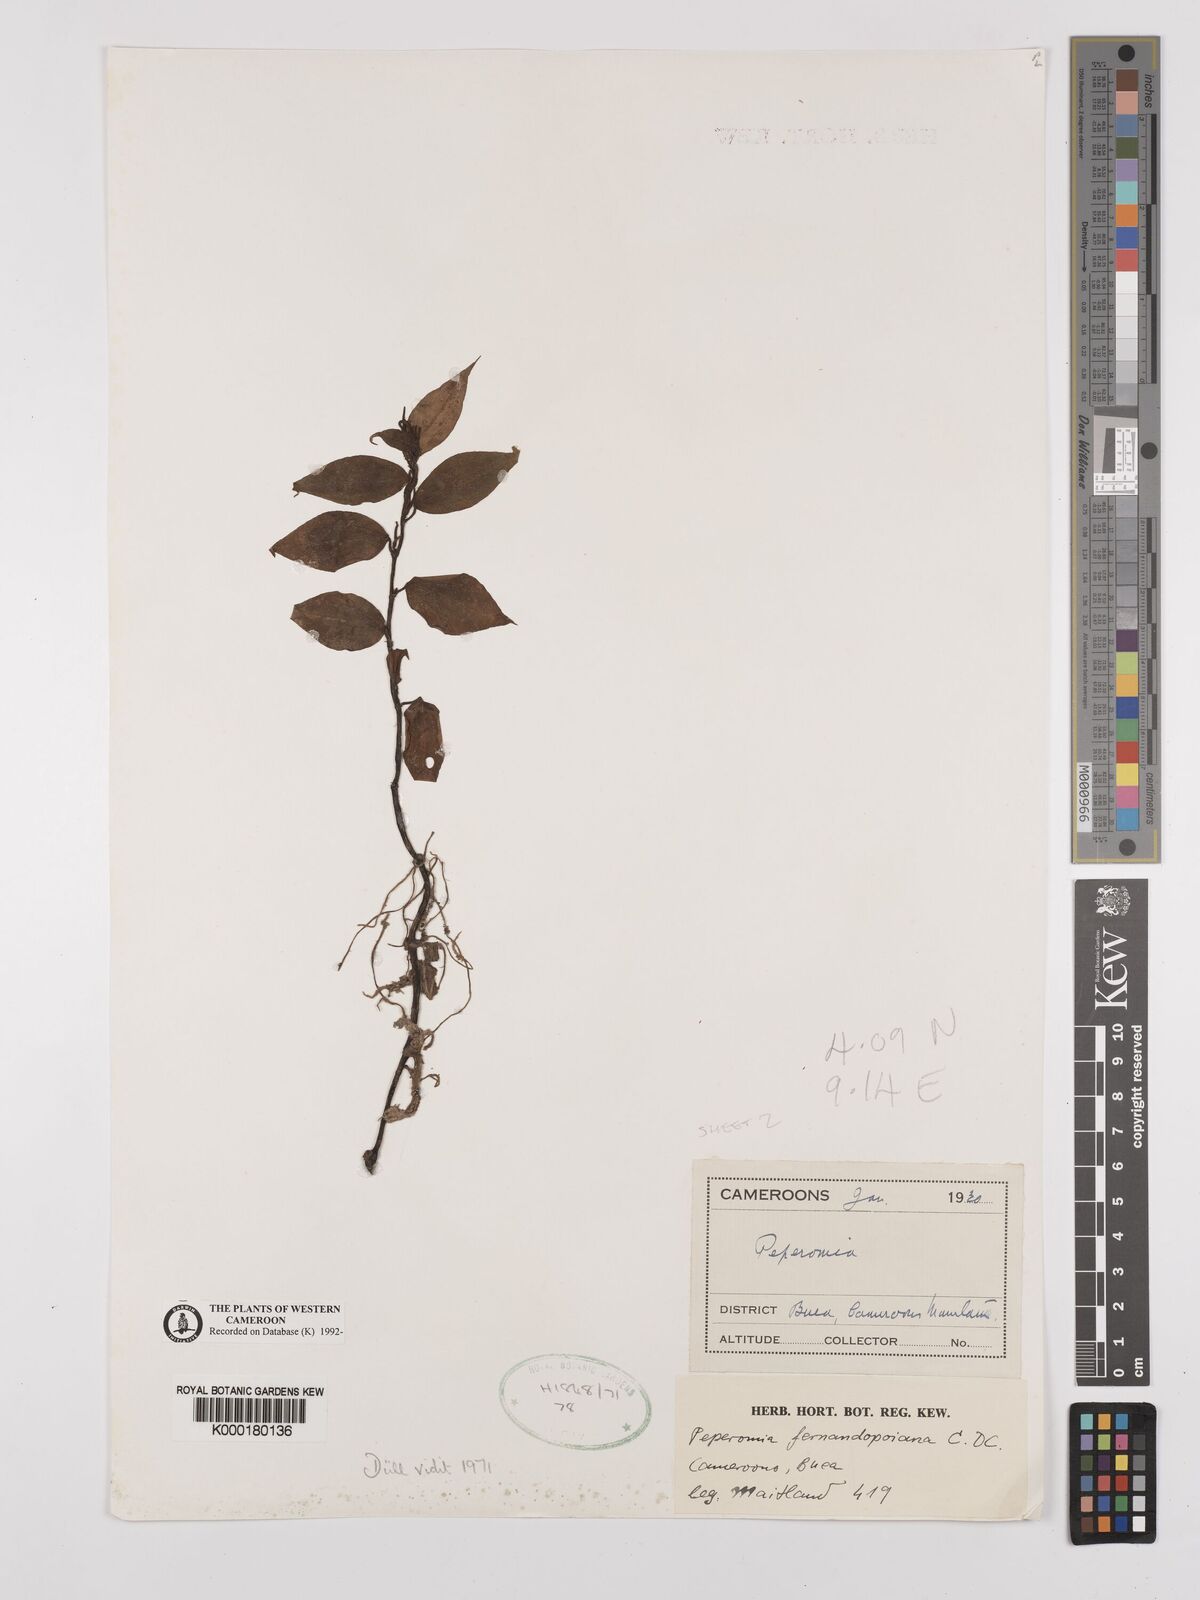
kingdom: Plantae
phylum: Tracheophyta
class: Magnoliopsida
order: Piperales
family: Piperaceae
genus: Peperomia
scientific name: Peperomia fernandopoiana
